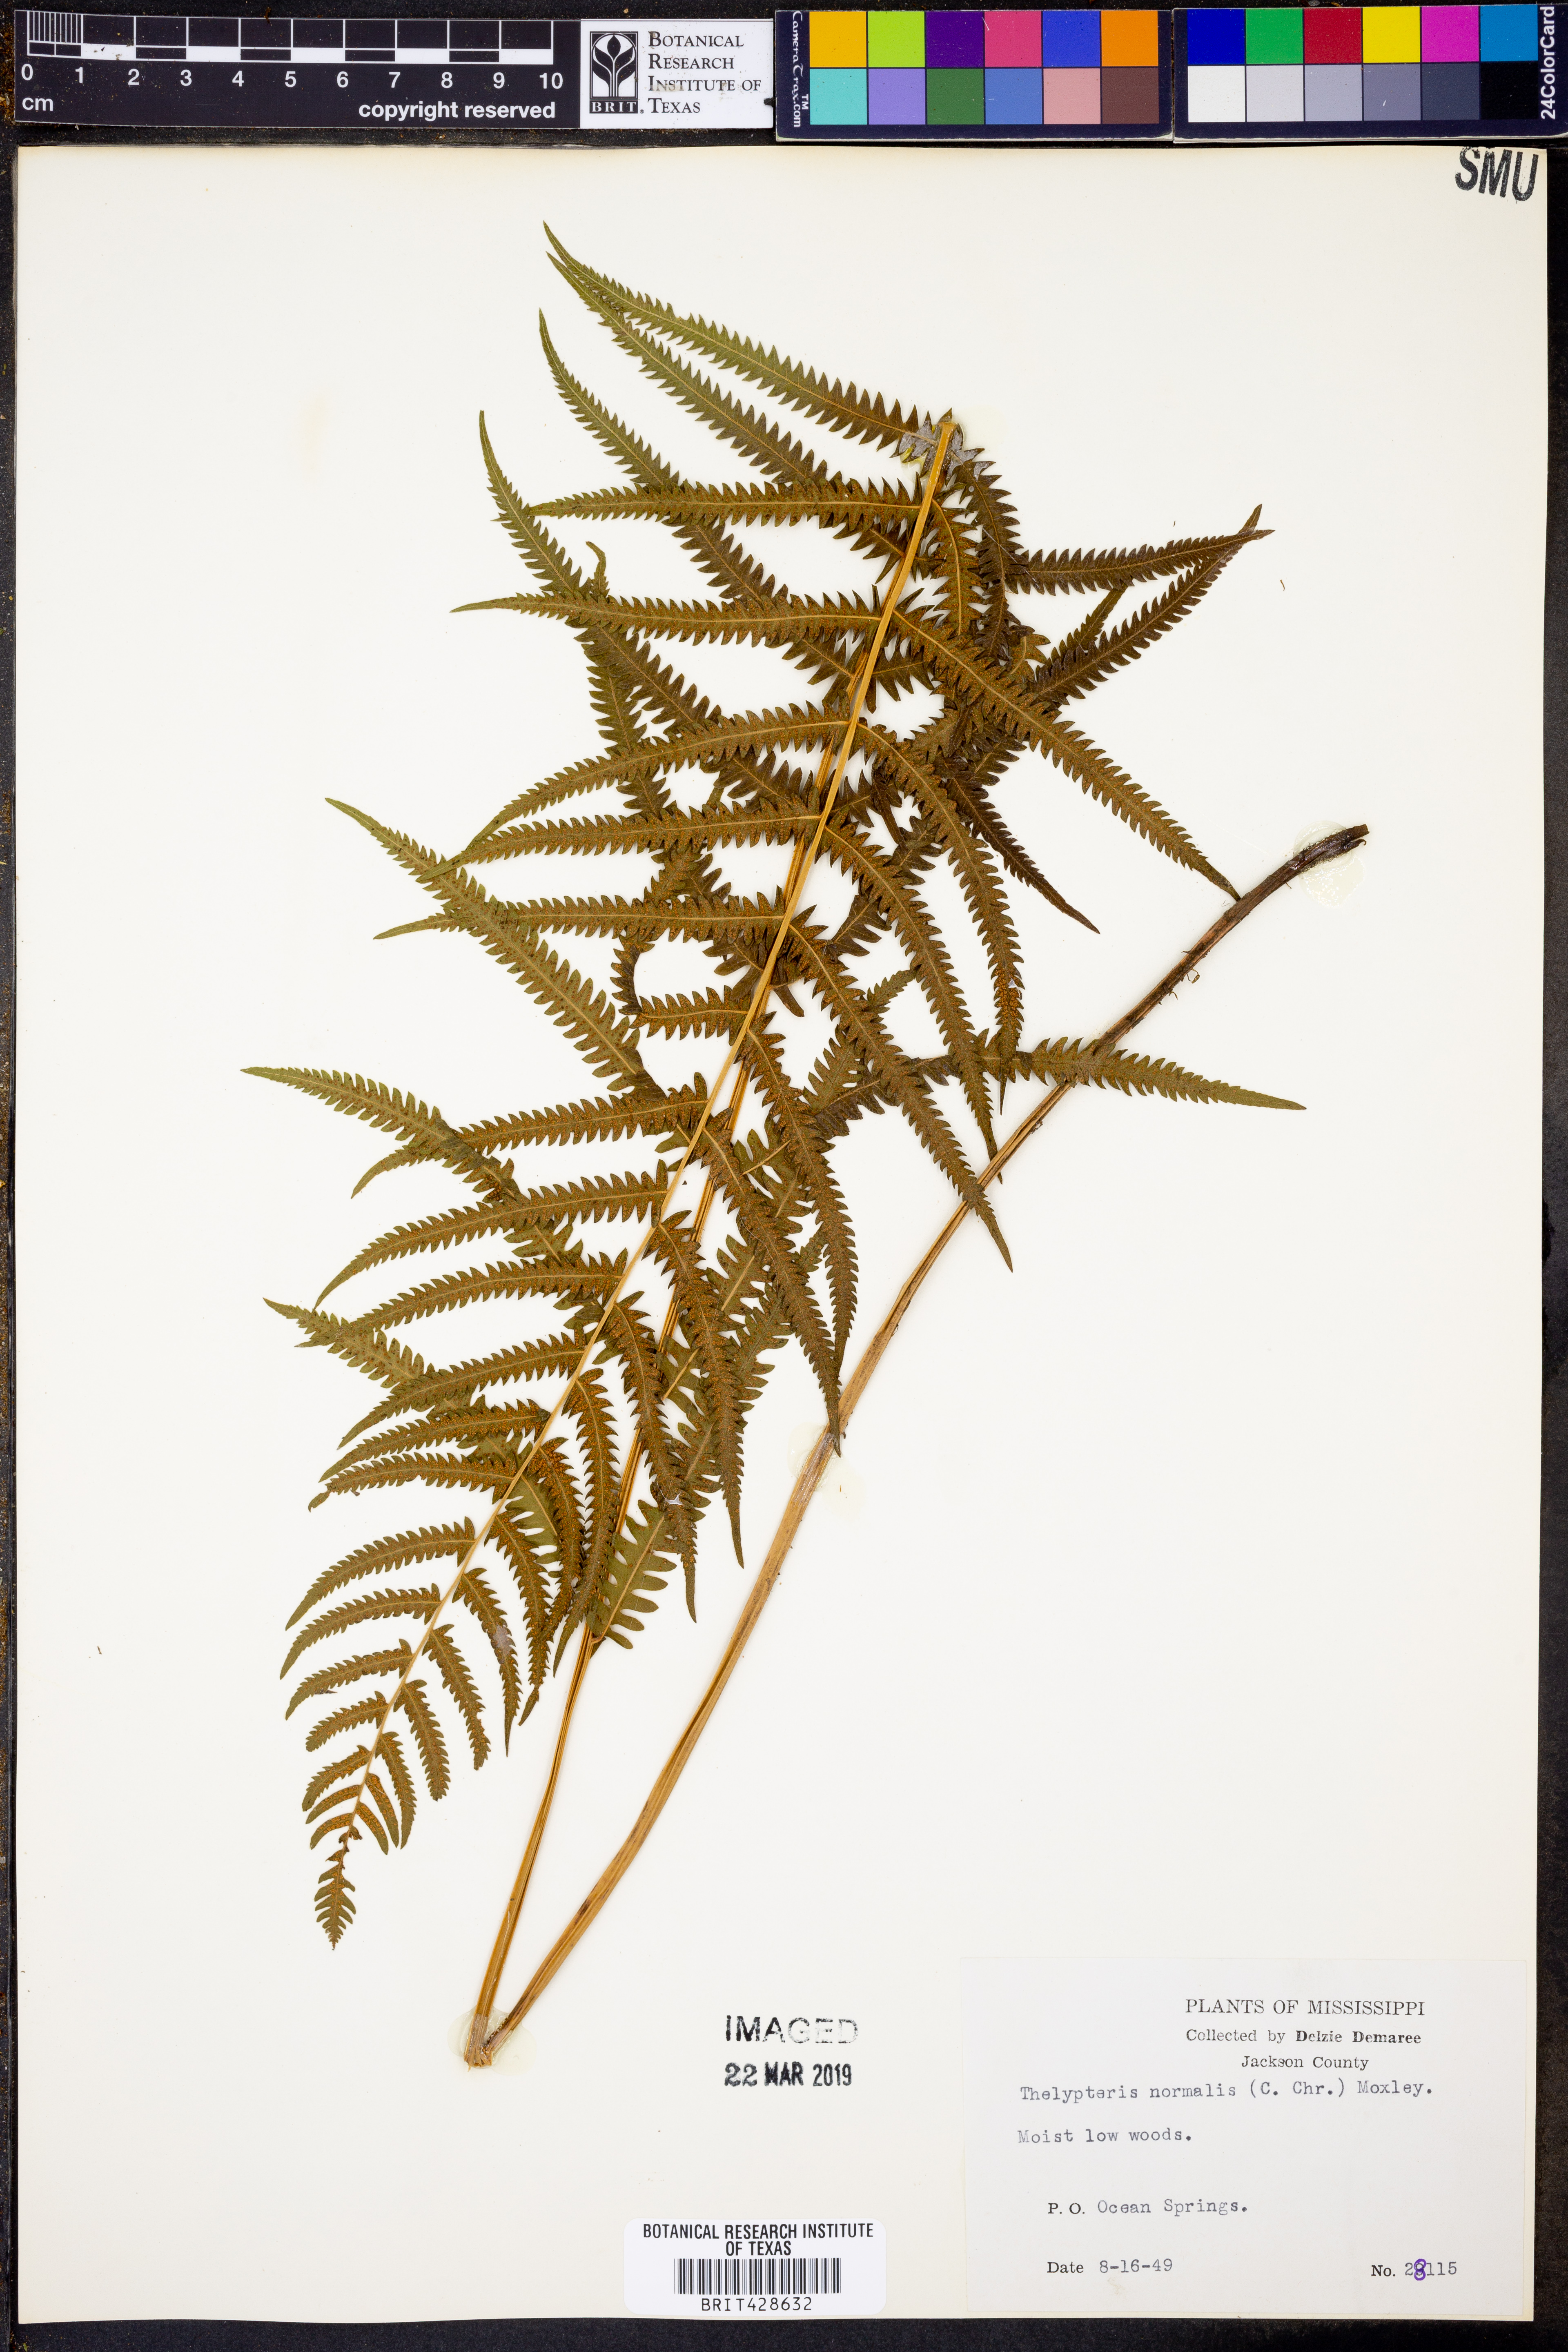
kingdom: Plantae
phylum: Tracheophyta
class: Polypodiopsida
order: Polypodiales
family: Thelypteridaceae
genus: Pelazoneuron
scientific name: Pelazoneuron kunthii
